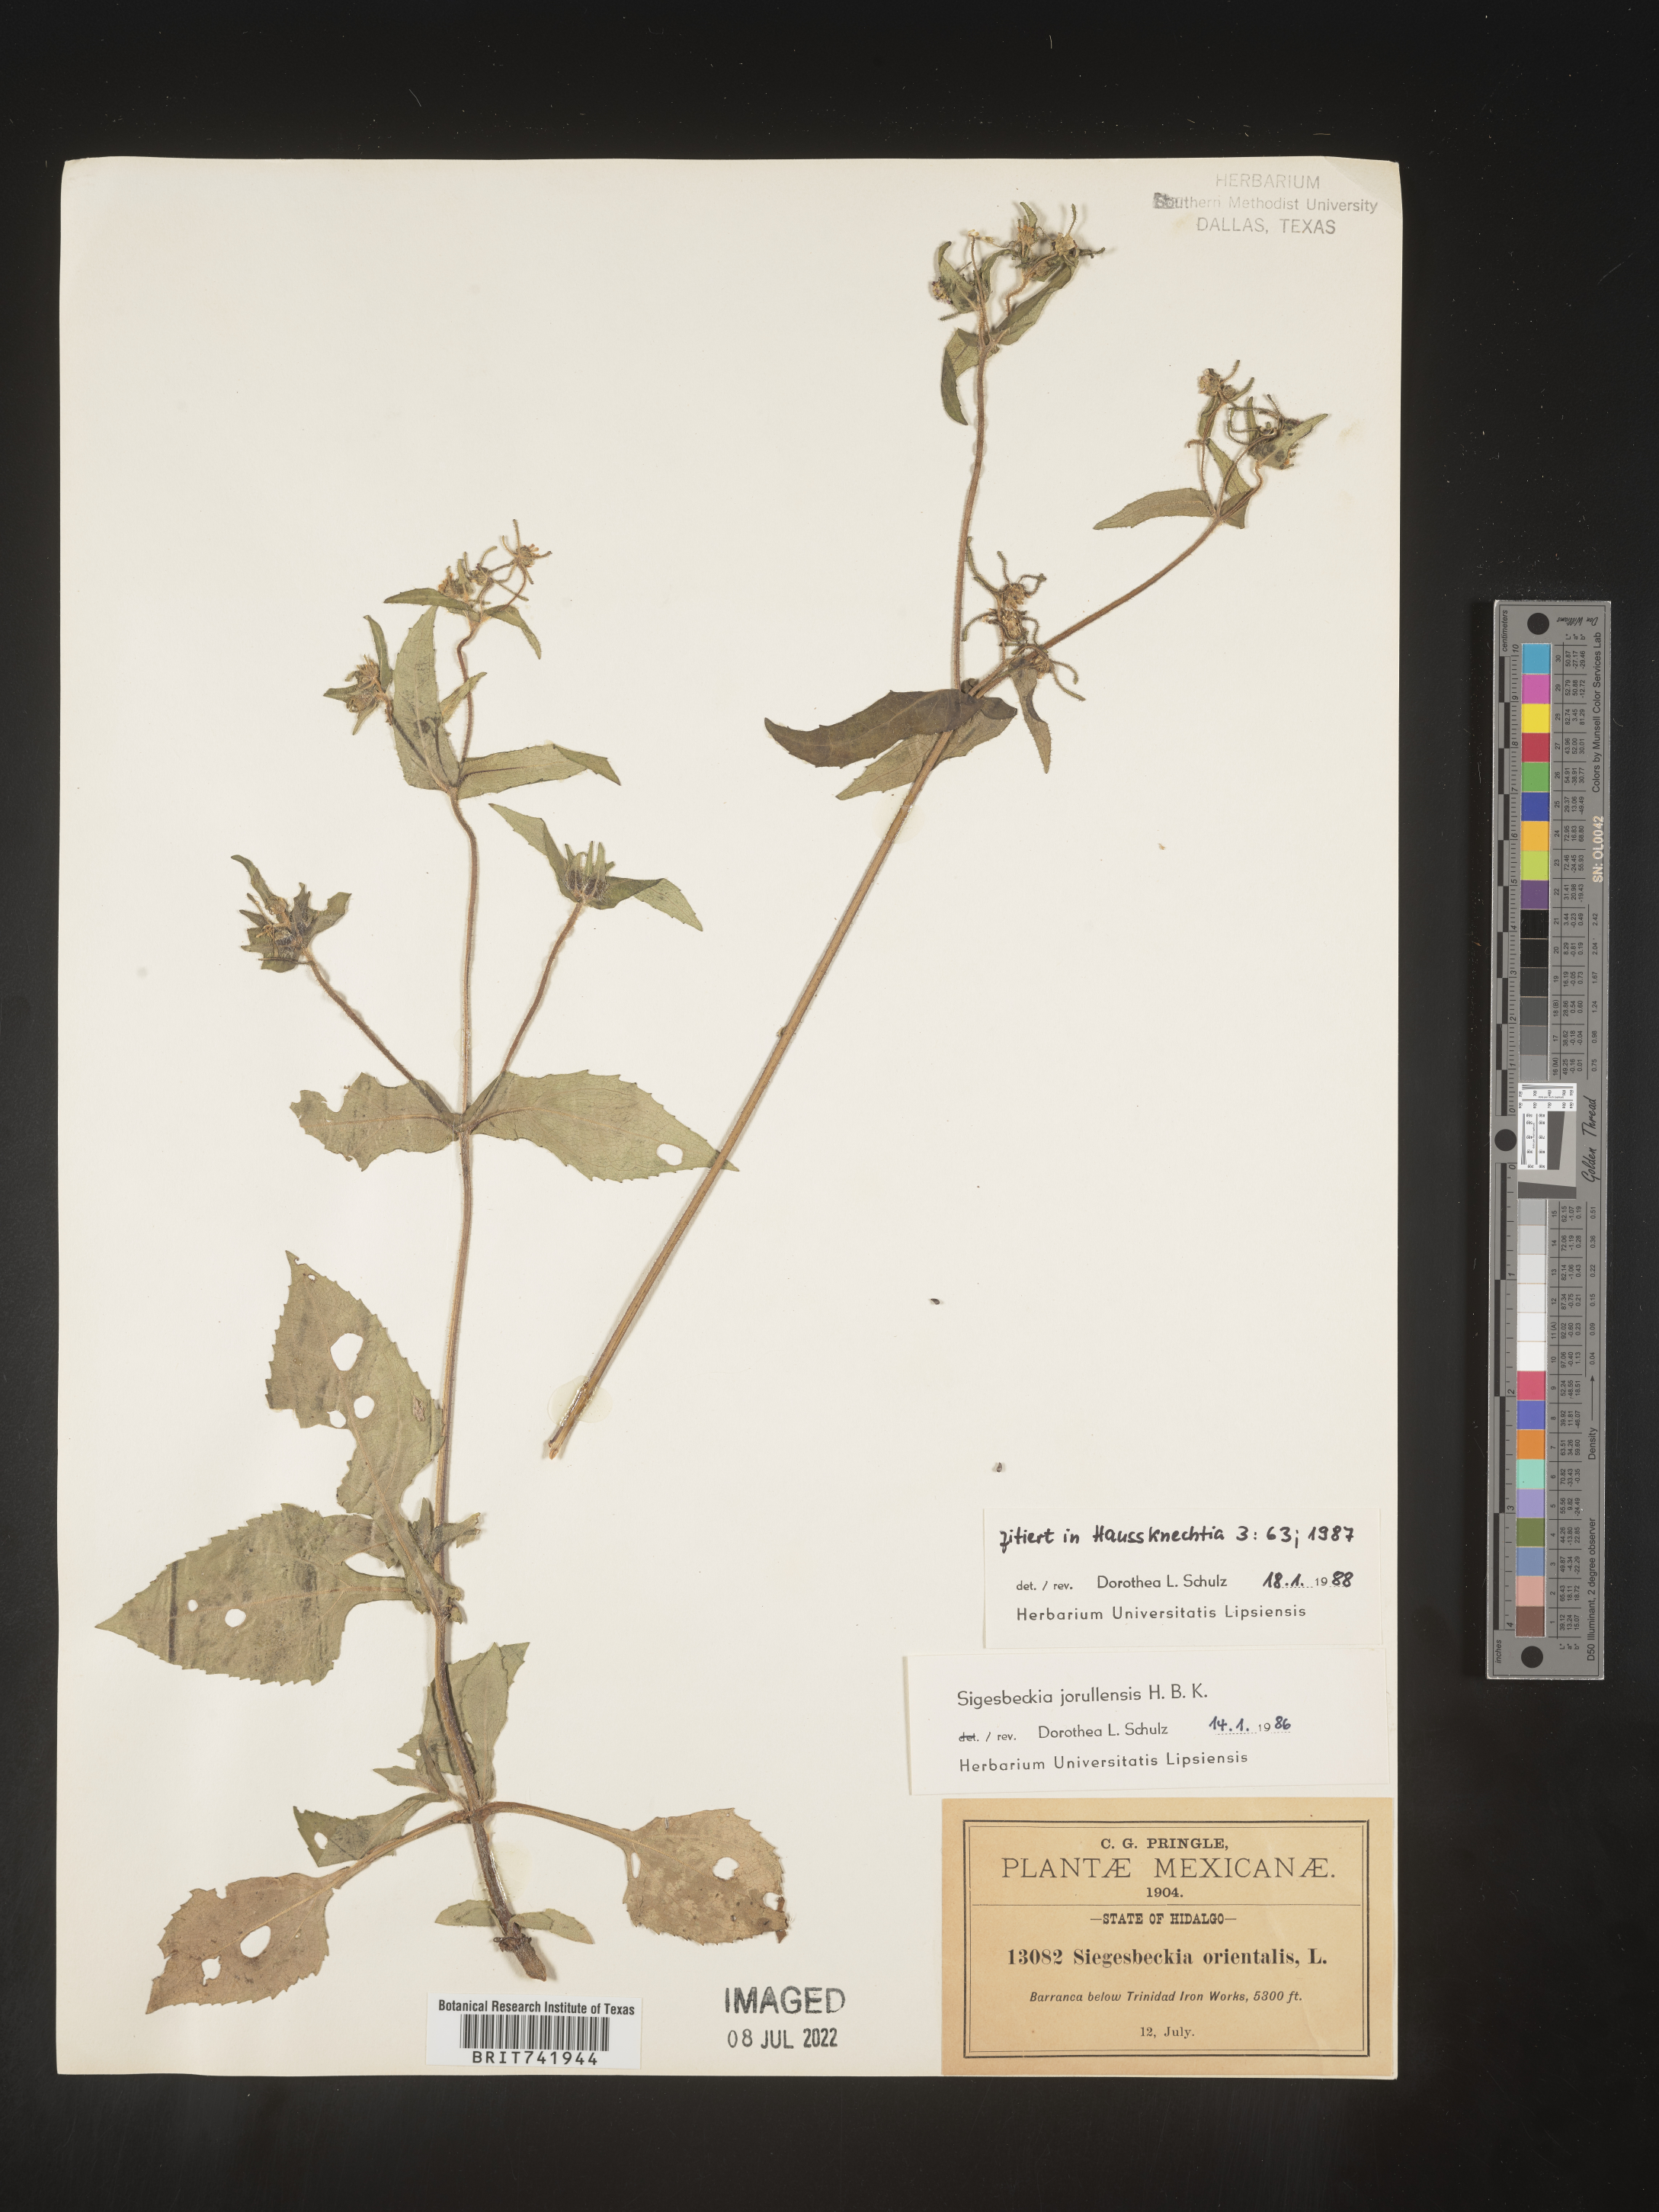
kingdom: Plantae
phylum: Tracheophyta
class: Magnoliopsida
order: Asterales
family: Asteraceae
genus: Sigesbeckia
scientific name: Sigesbeckia
